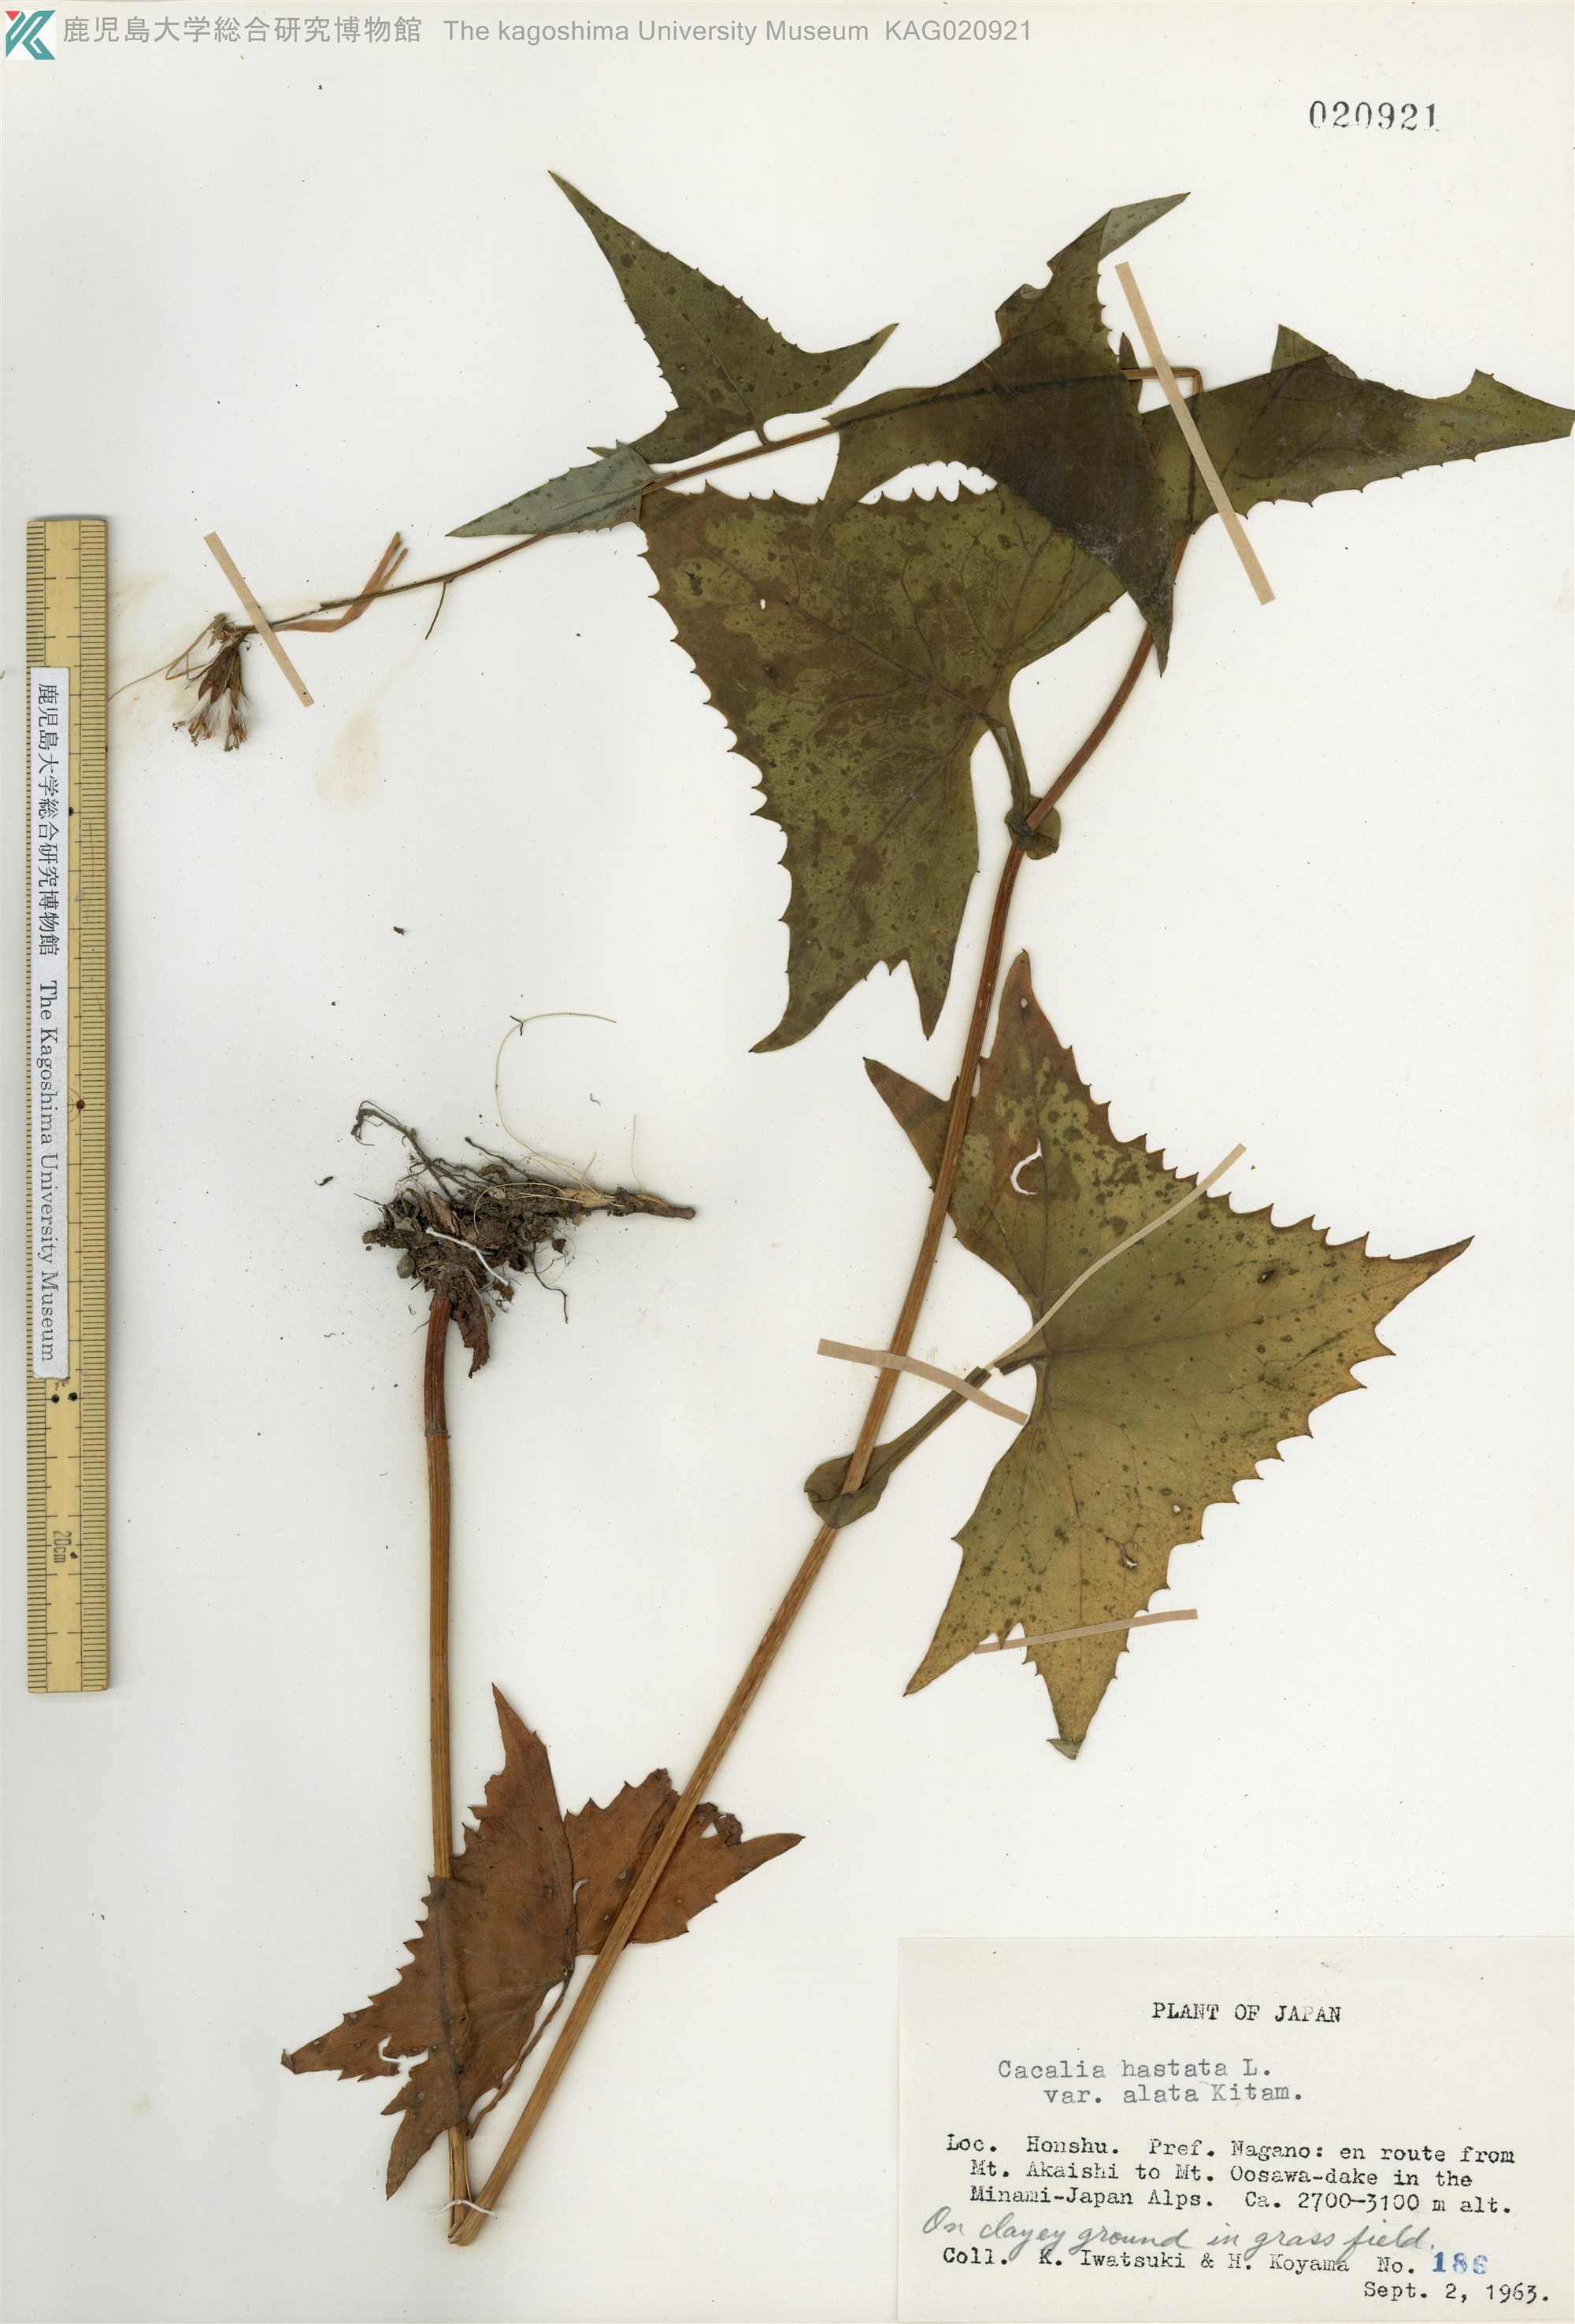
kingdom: Plantae
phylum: Tracheophyta
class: Magnoliopsida
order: Asterales
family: Asteraceae
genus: Parasenecio
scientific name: Parasenecio maximowicziana
